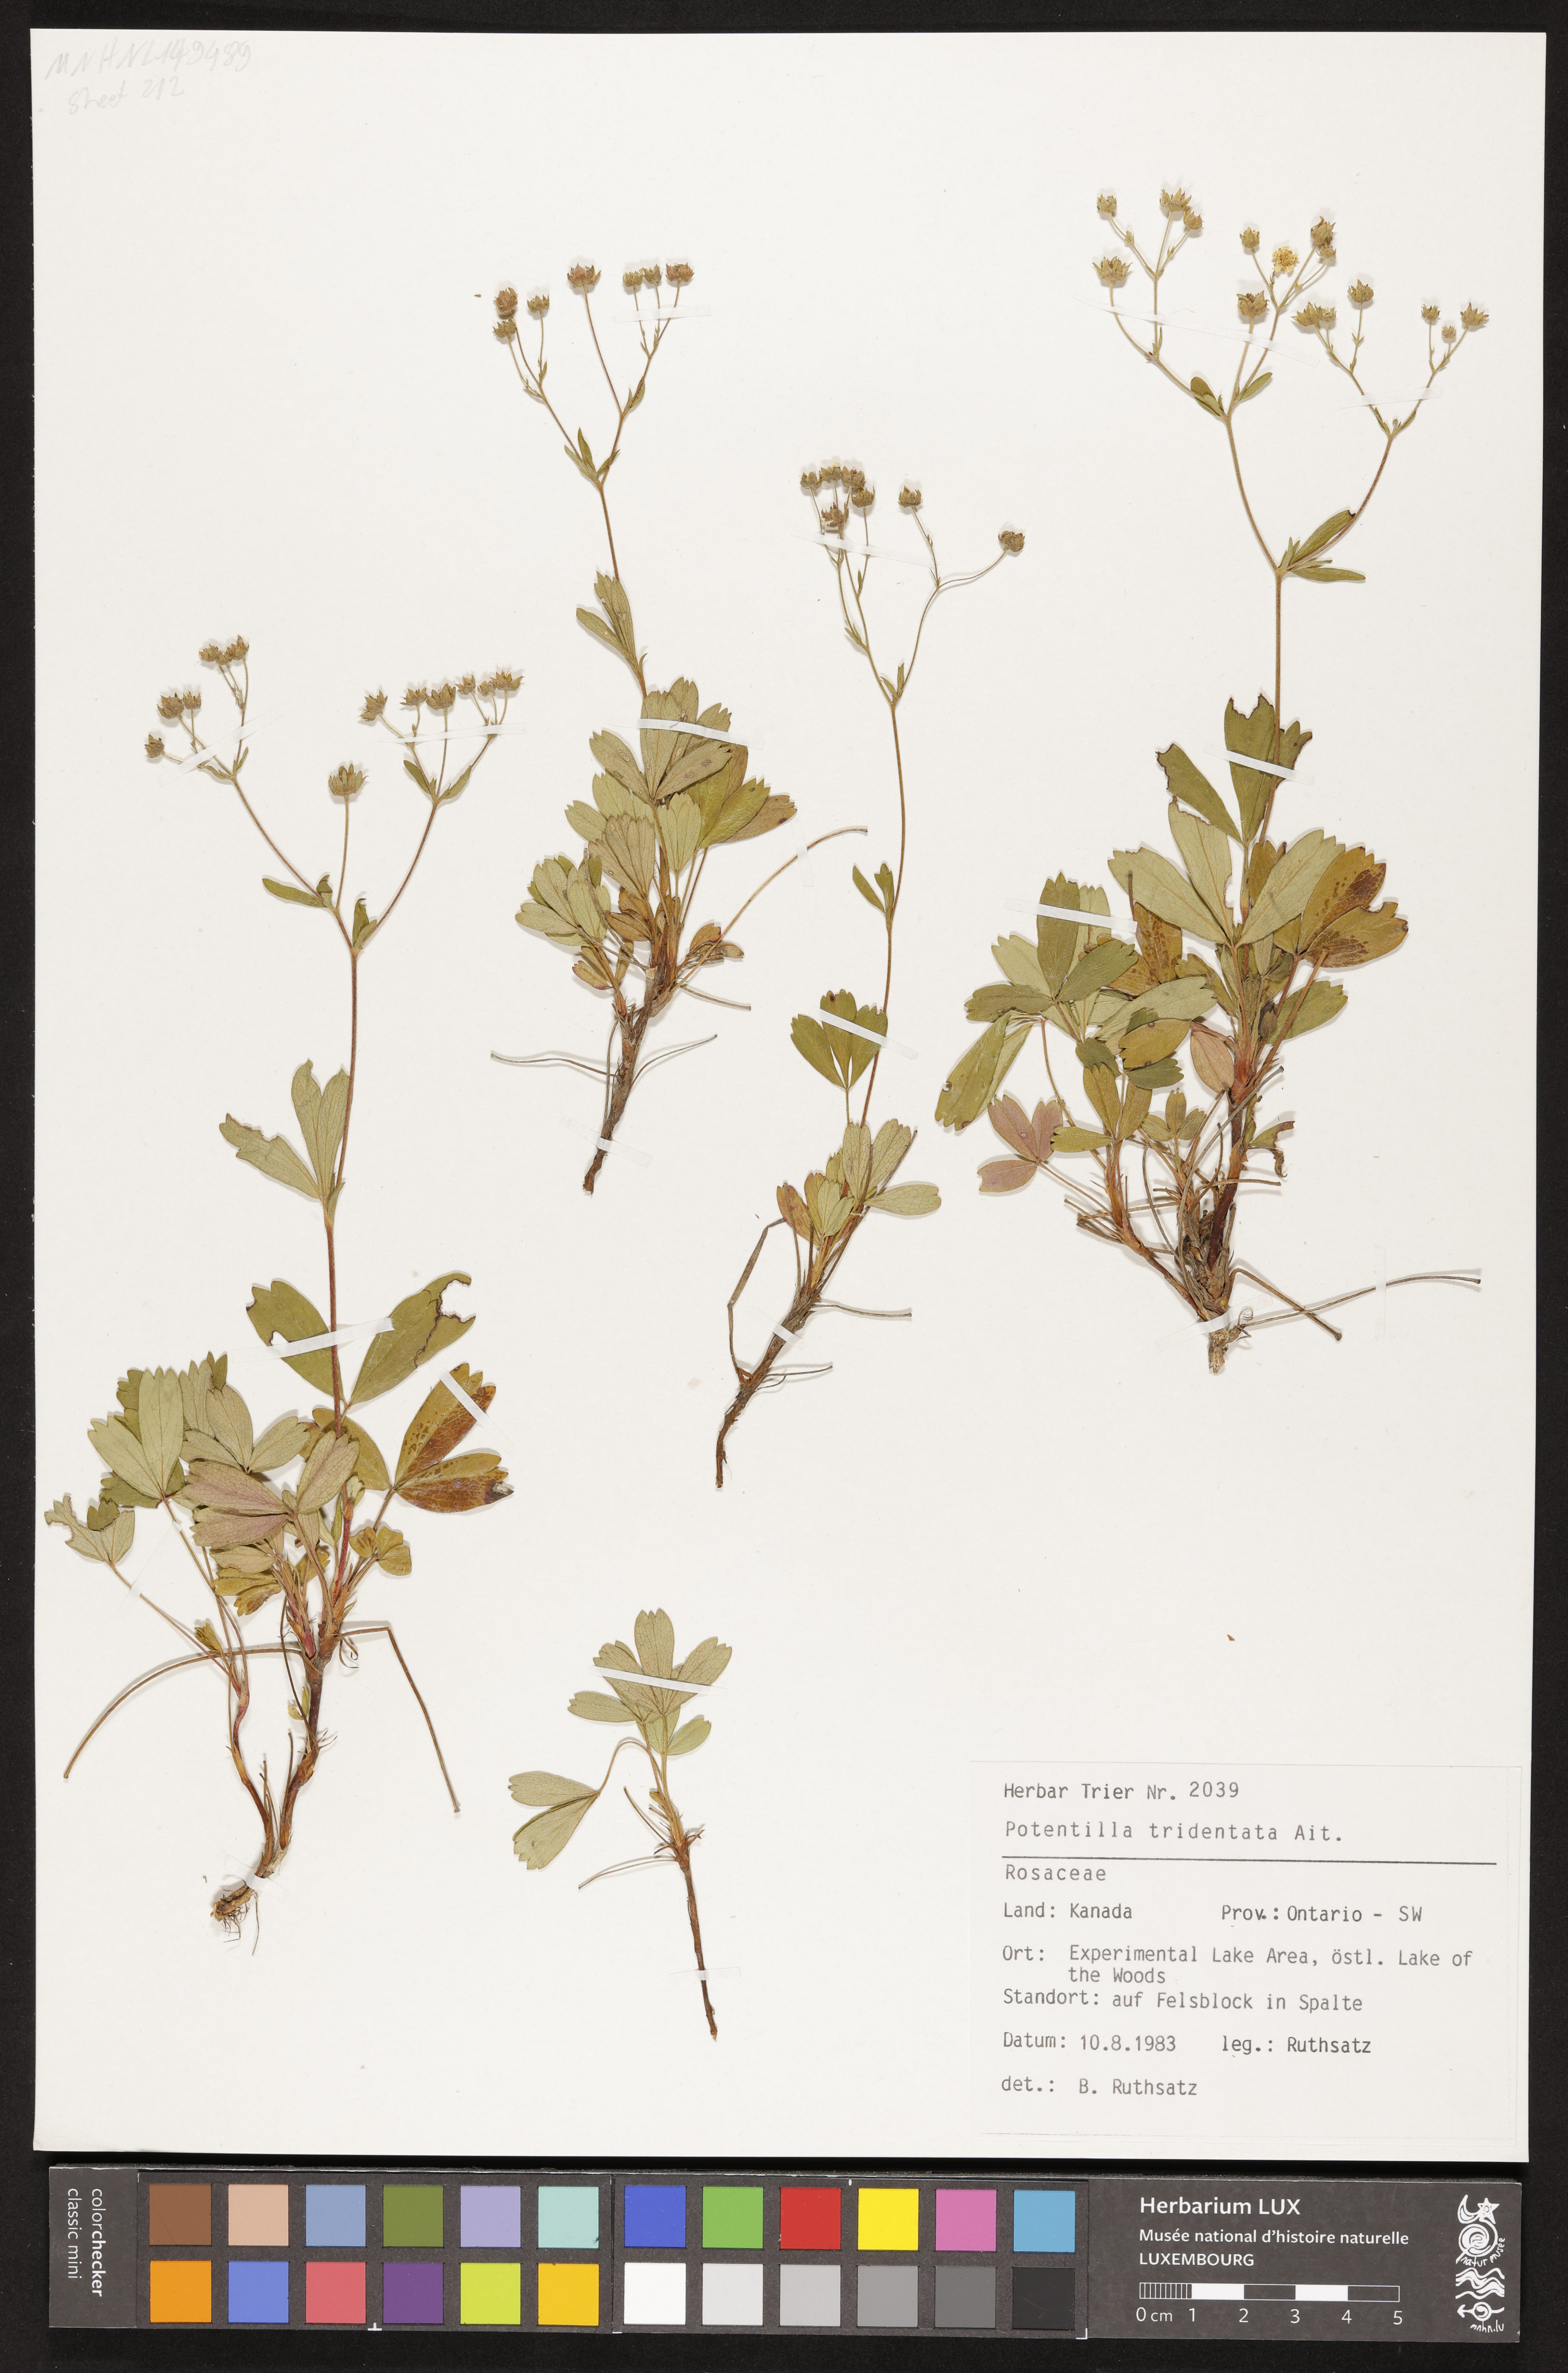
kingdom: Plantae
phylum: Tracheophyta
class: Magnoliopsida
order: Rosales
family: Rosaceae
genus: Sibbaldia
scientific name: Sibbaldia tridentata
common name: Three-toothed cinquefoil
